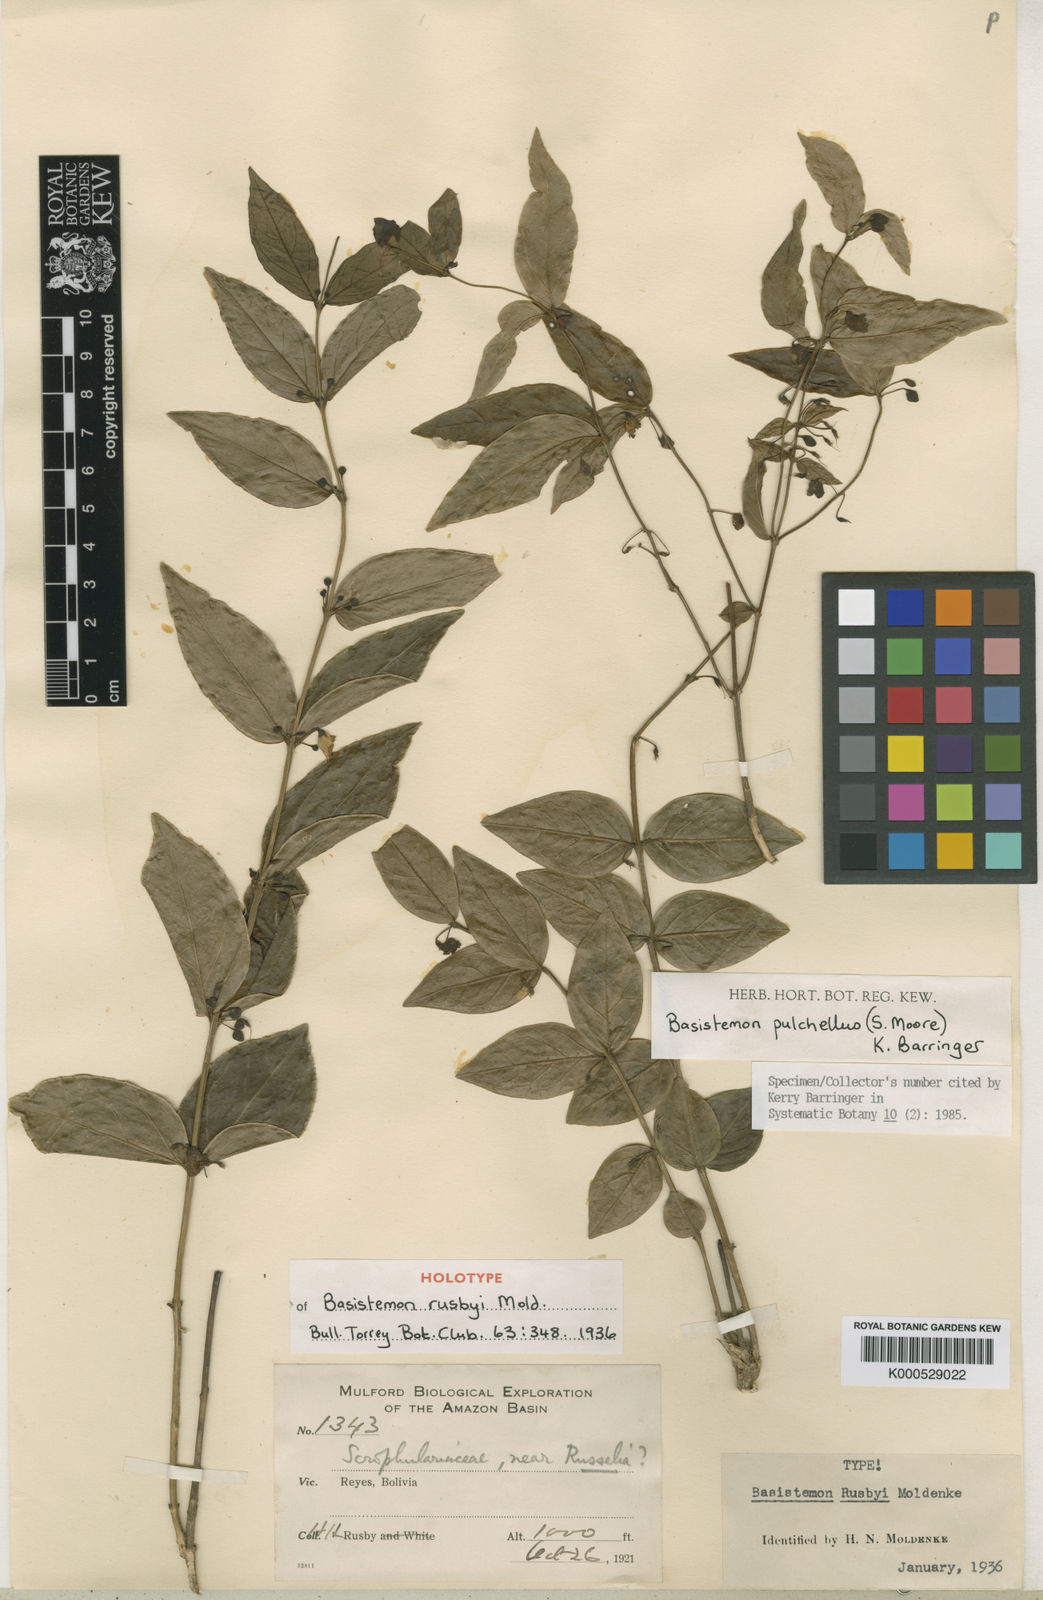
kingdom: Plantae
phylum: Tracheophyta
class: Magnoliopsida
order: Lamiales
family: Plantaginaceae
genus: Basistemon
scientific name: Basistemon pulchellus
